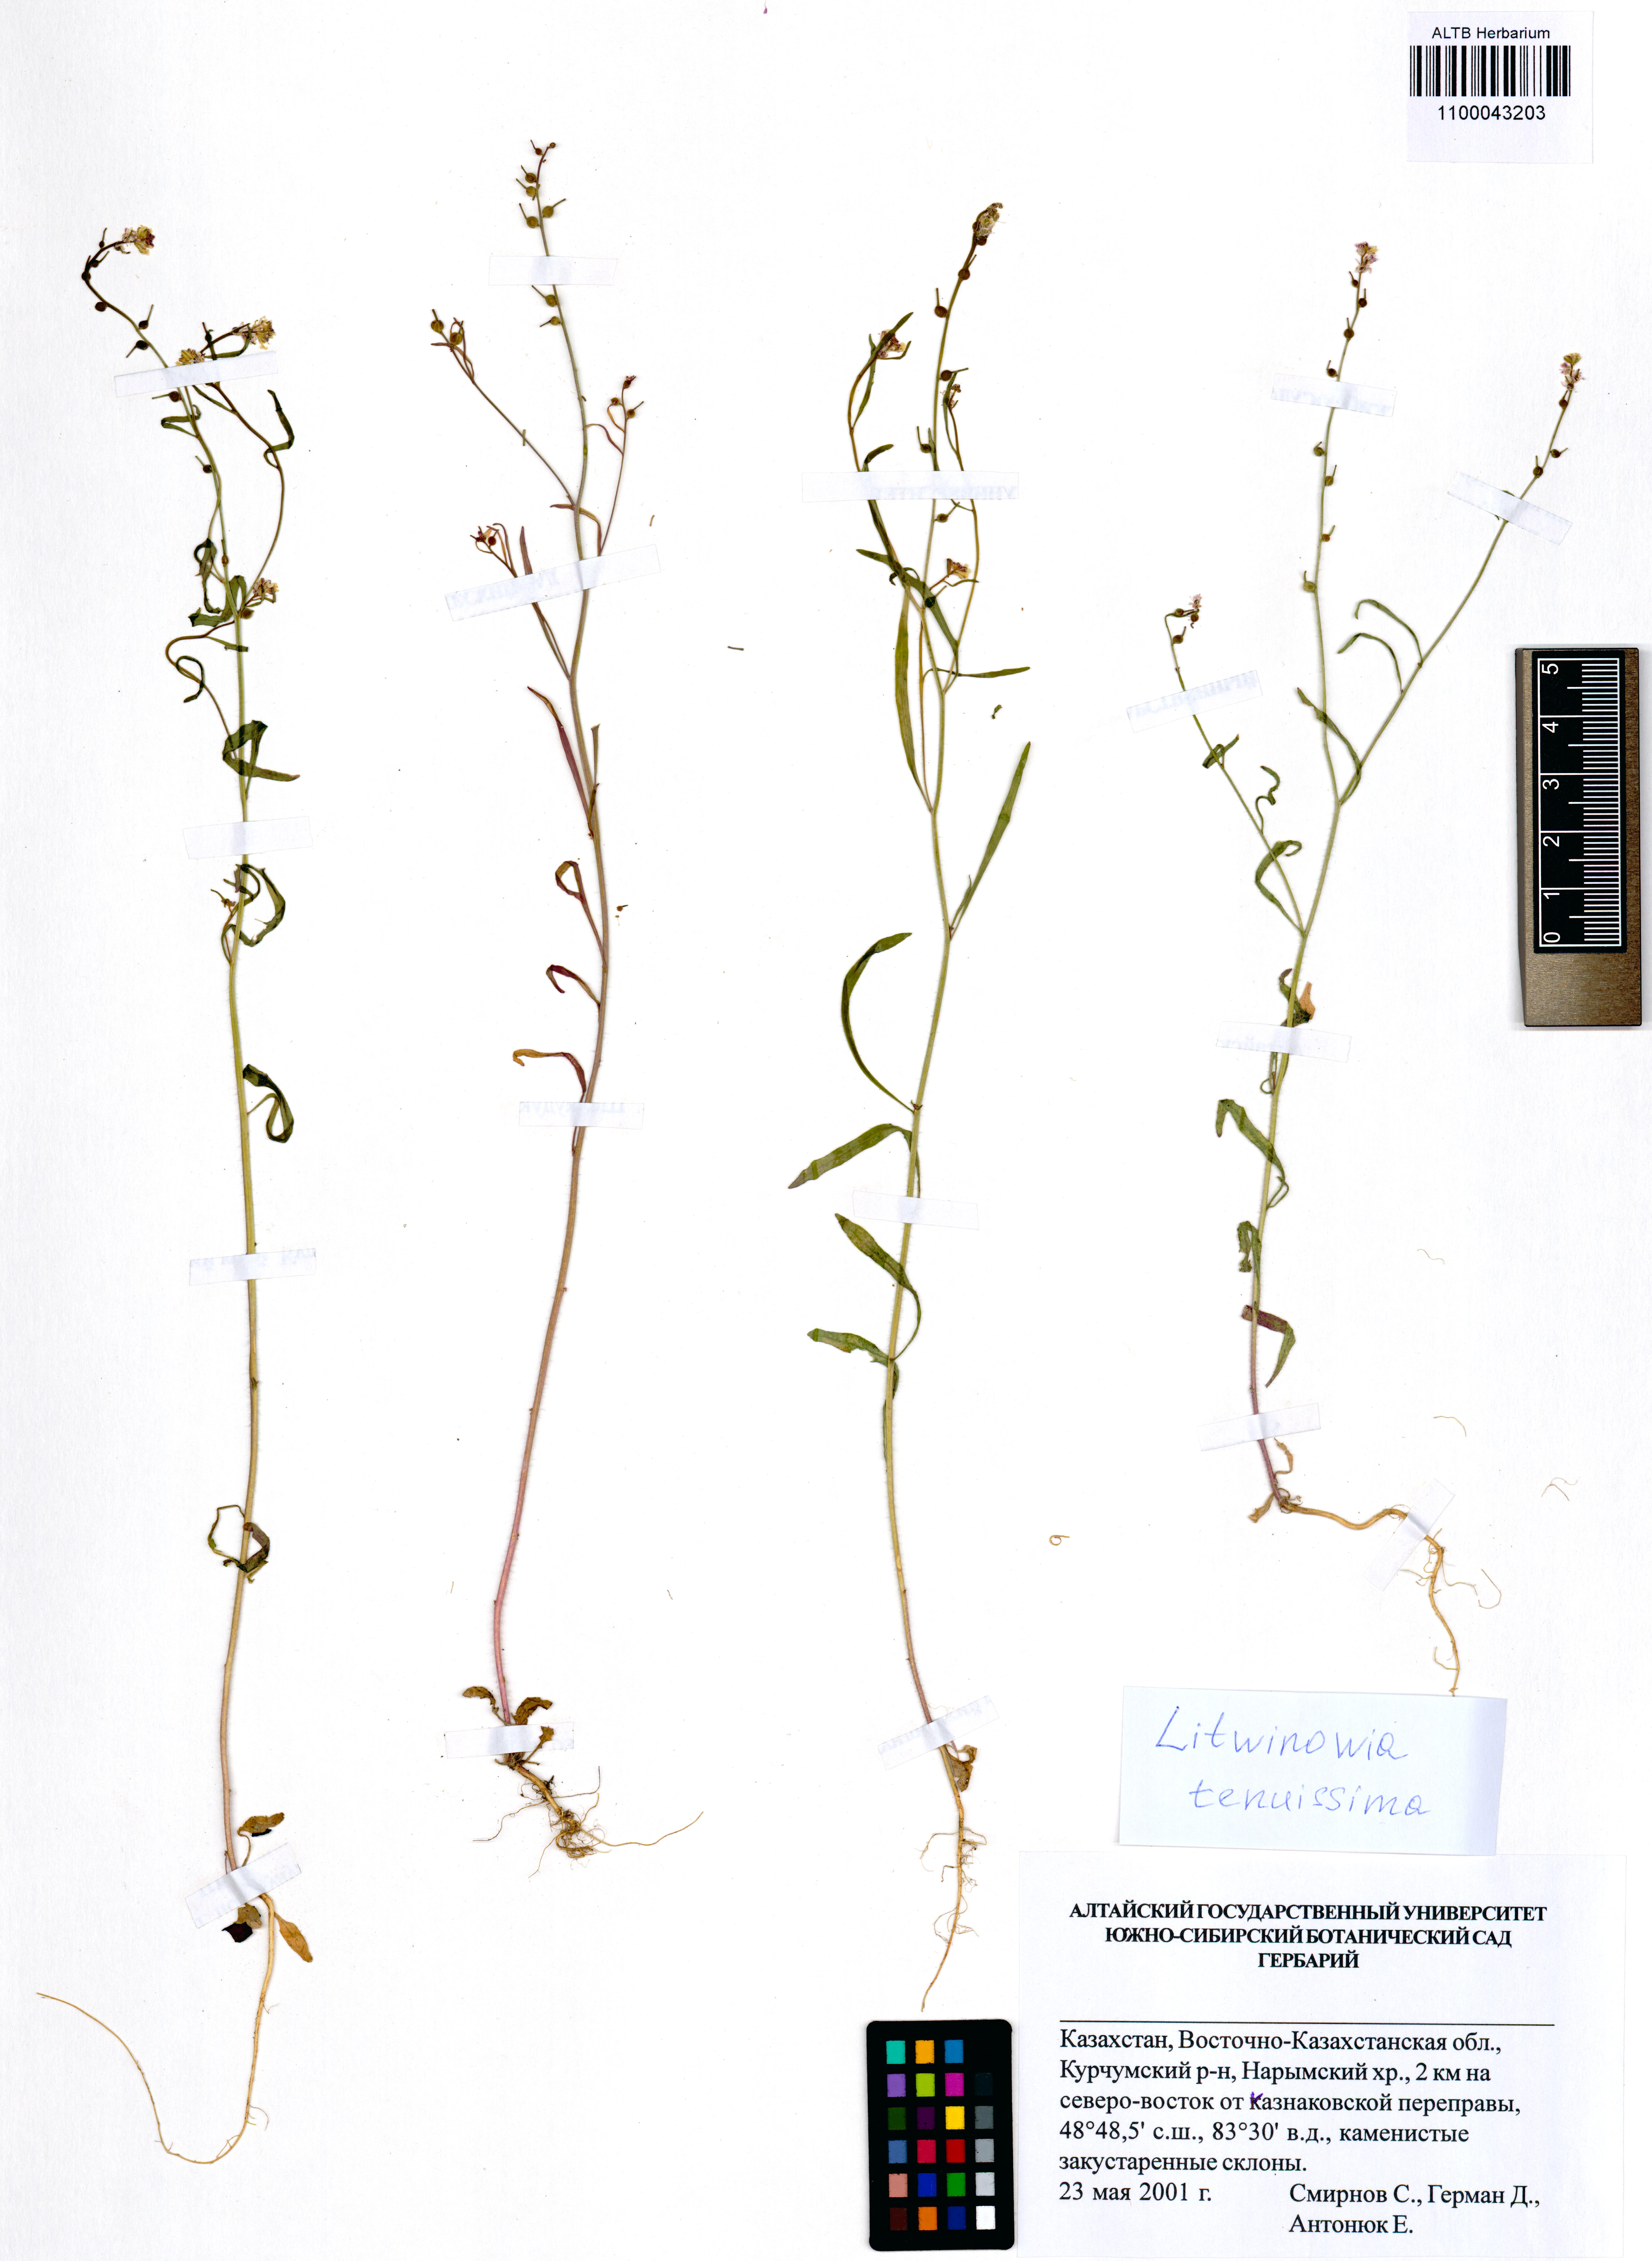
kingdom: Plantae
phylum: Tracheophyta
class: Magnoliopsida
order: Brassicales
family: Brassicaceae
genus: Litwinowia
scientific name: Litwinowia tenuissima
